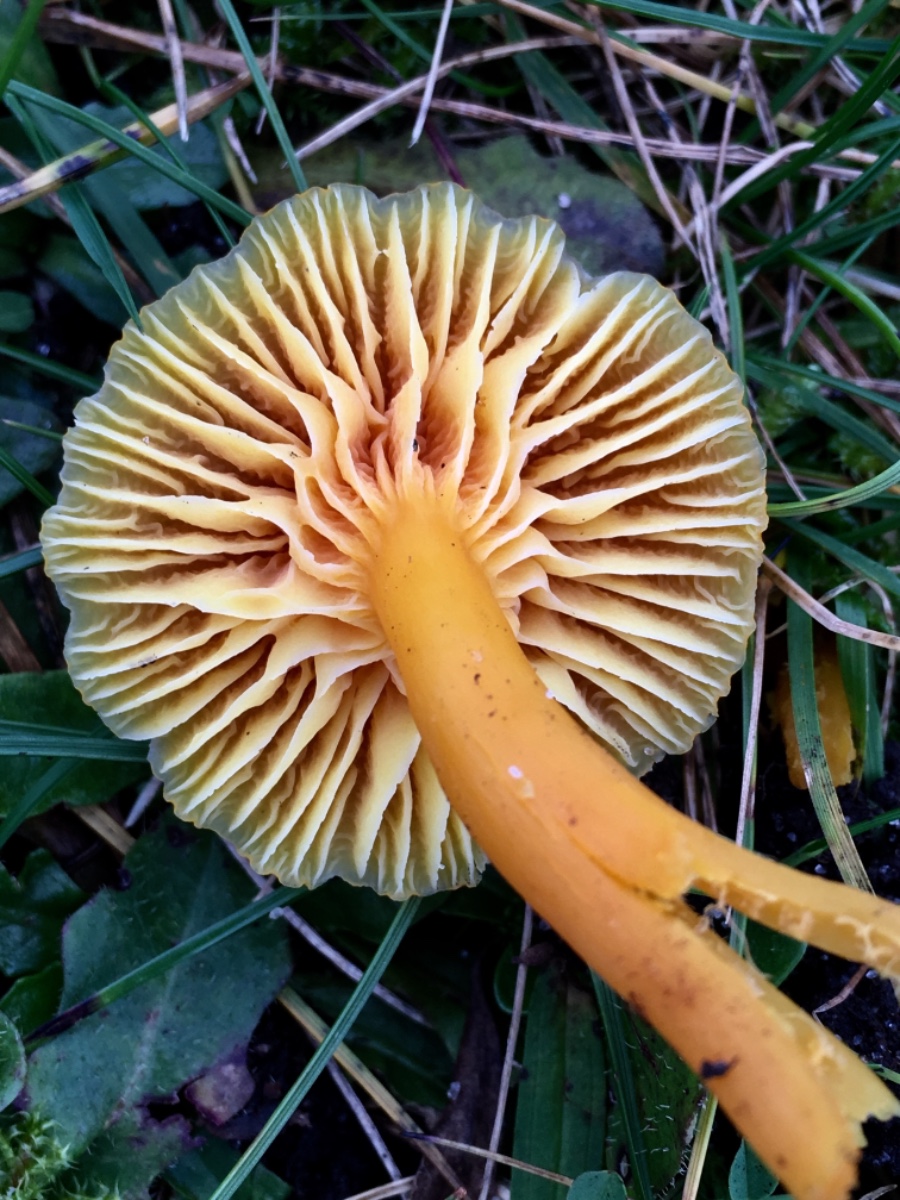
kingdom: Fungi
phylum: Basidiomycota
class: Agaricomycetes
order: Agaricales
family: Hygrophoraceae
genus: Hygrocybe
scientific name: Hygrocybe reidii
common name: honning-vokshat
